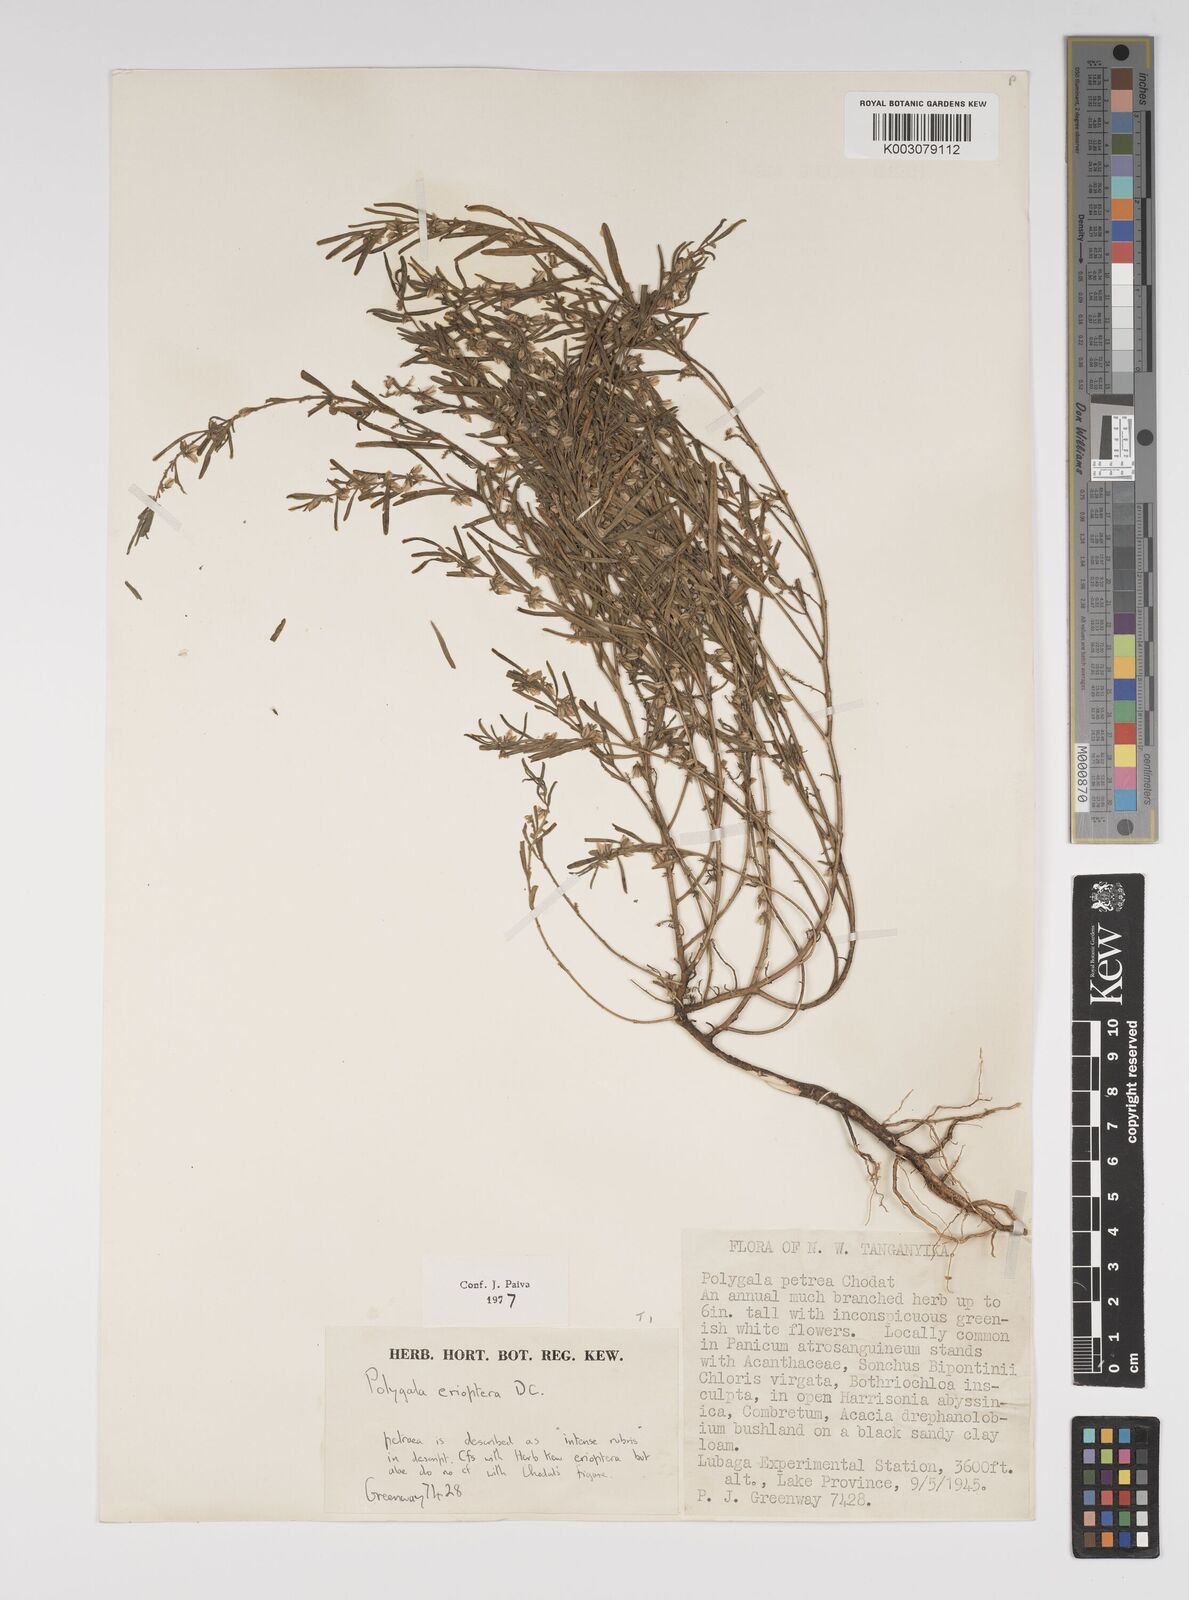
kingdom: Plantae
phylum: Tracheophyta
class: Magnoliopsida
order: Fabales
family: Polygalaceae
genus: Polygala
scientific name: Polygala erioptera
